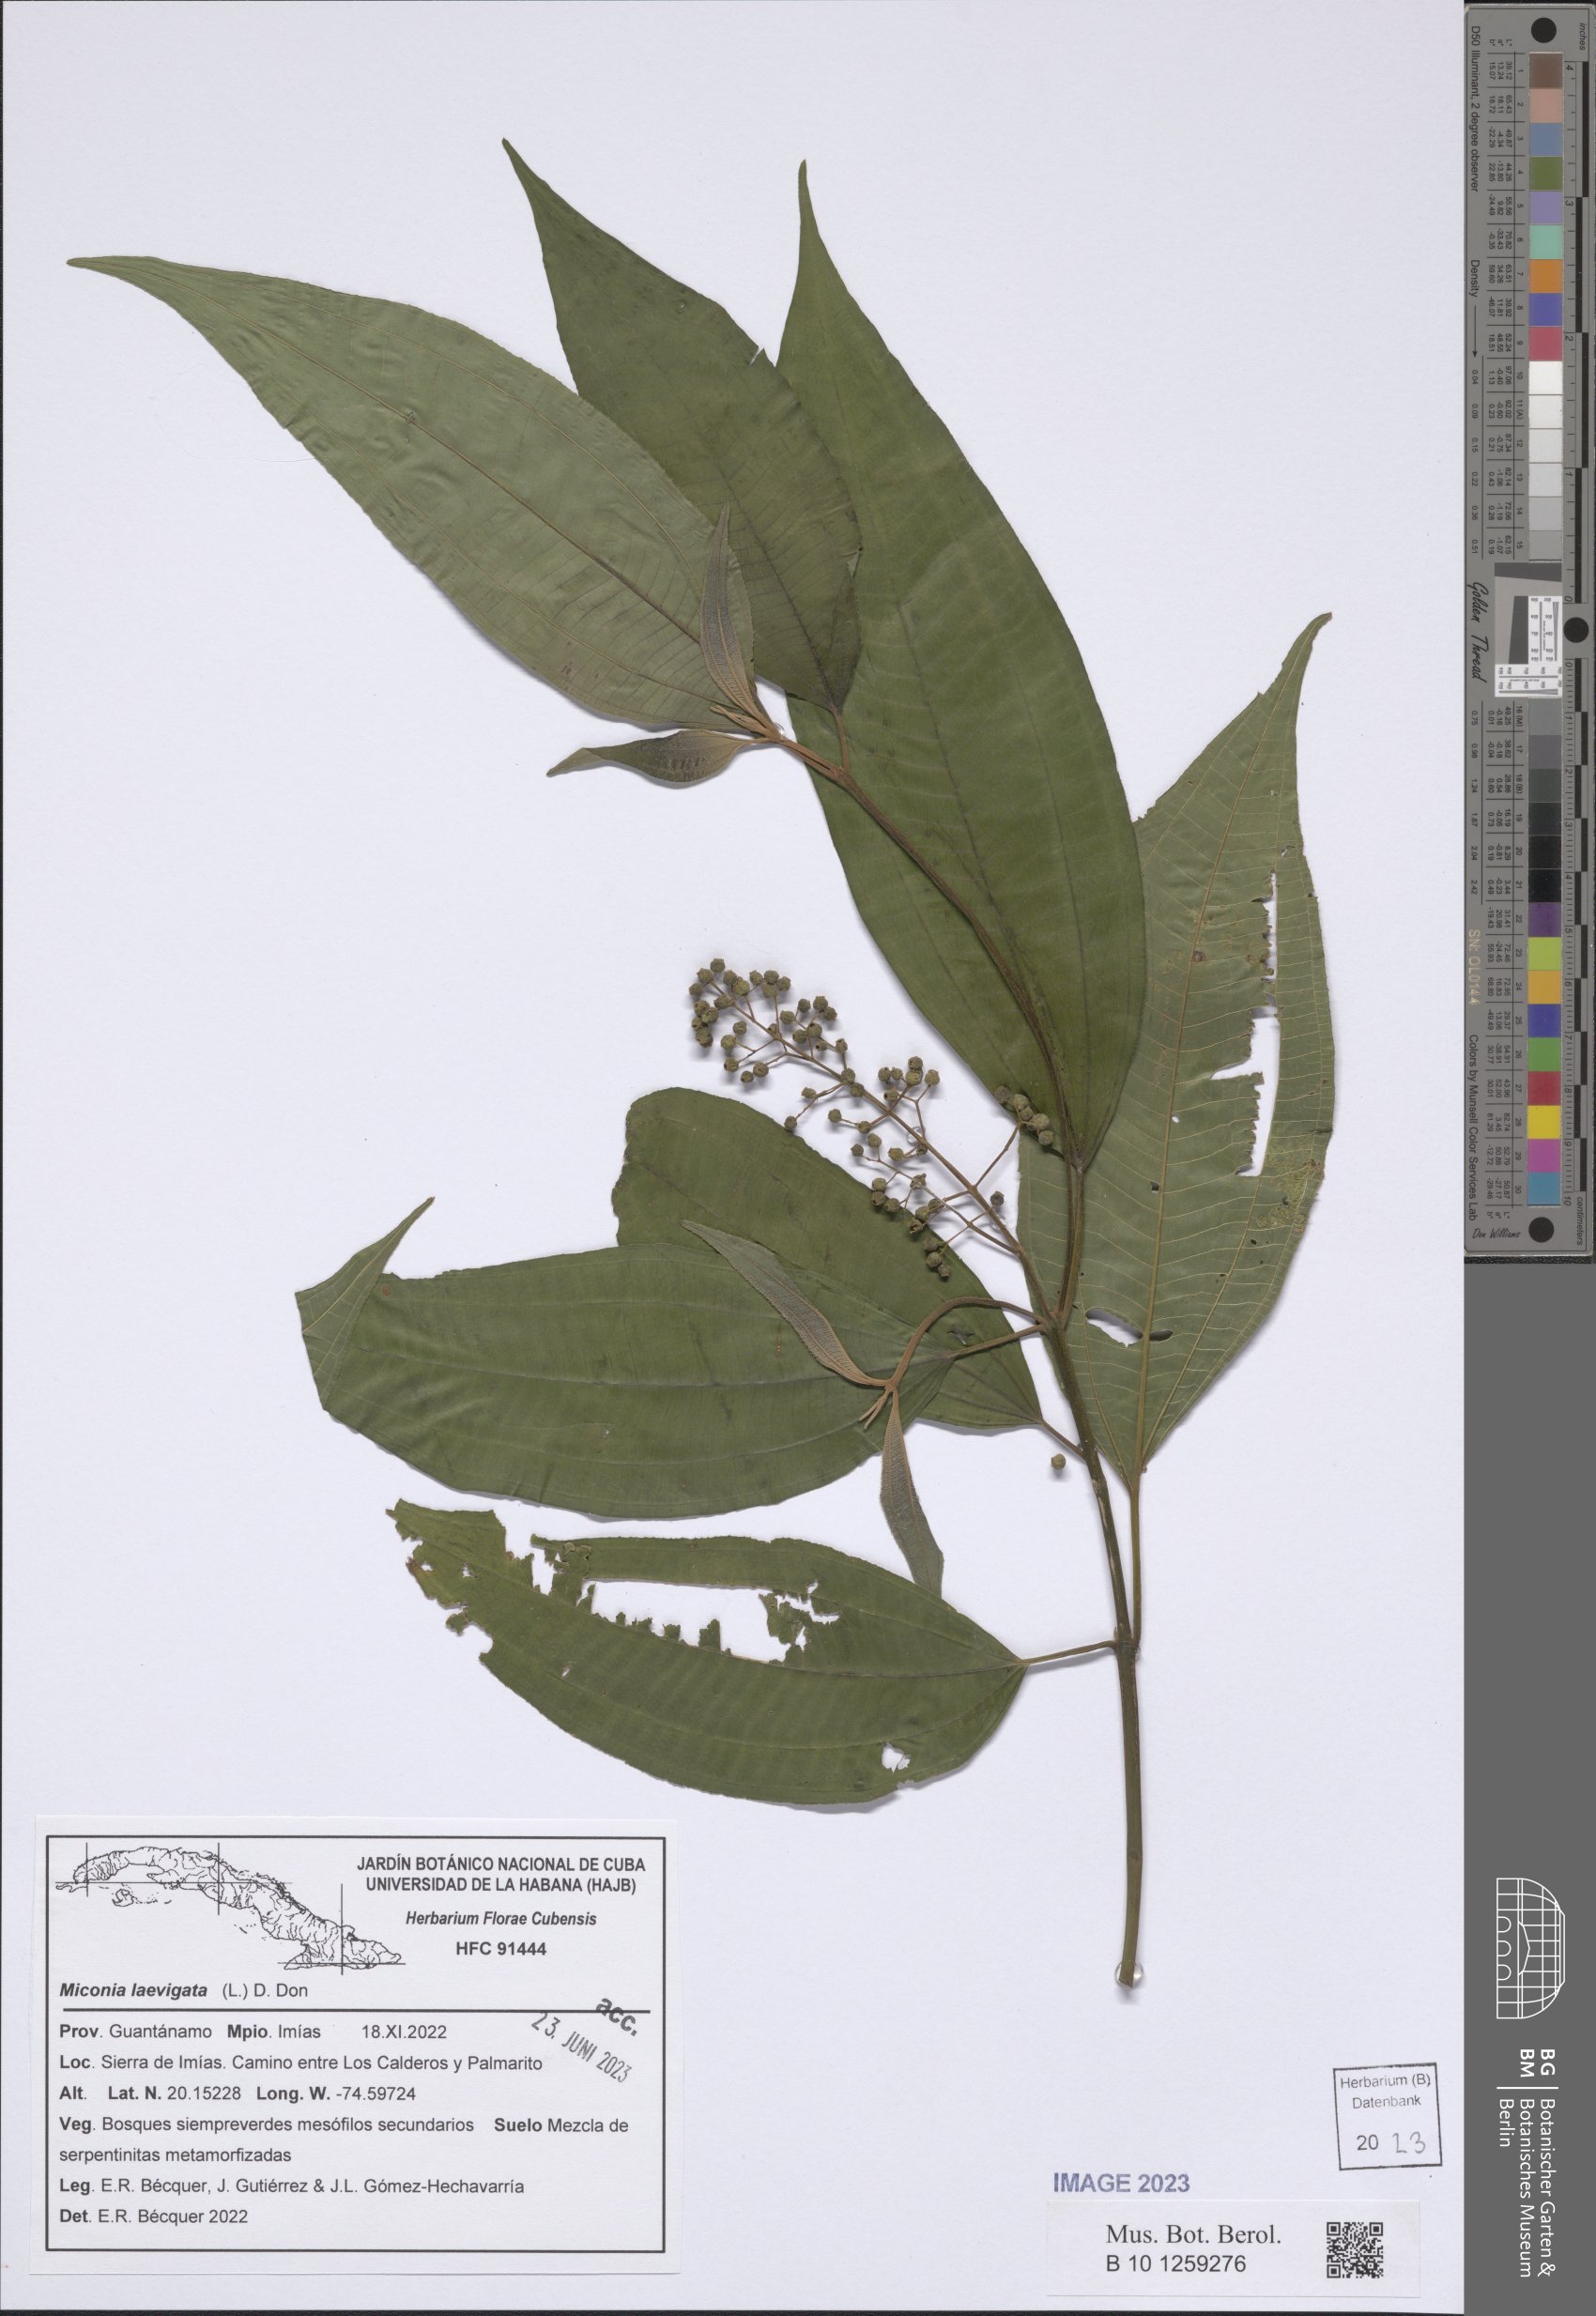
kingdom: Plantae
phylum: Tracheophyta
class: Magnoliopsida
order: Myrtales
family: Melastomataceae
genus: Miconia
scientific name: Miconia laevigata
